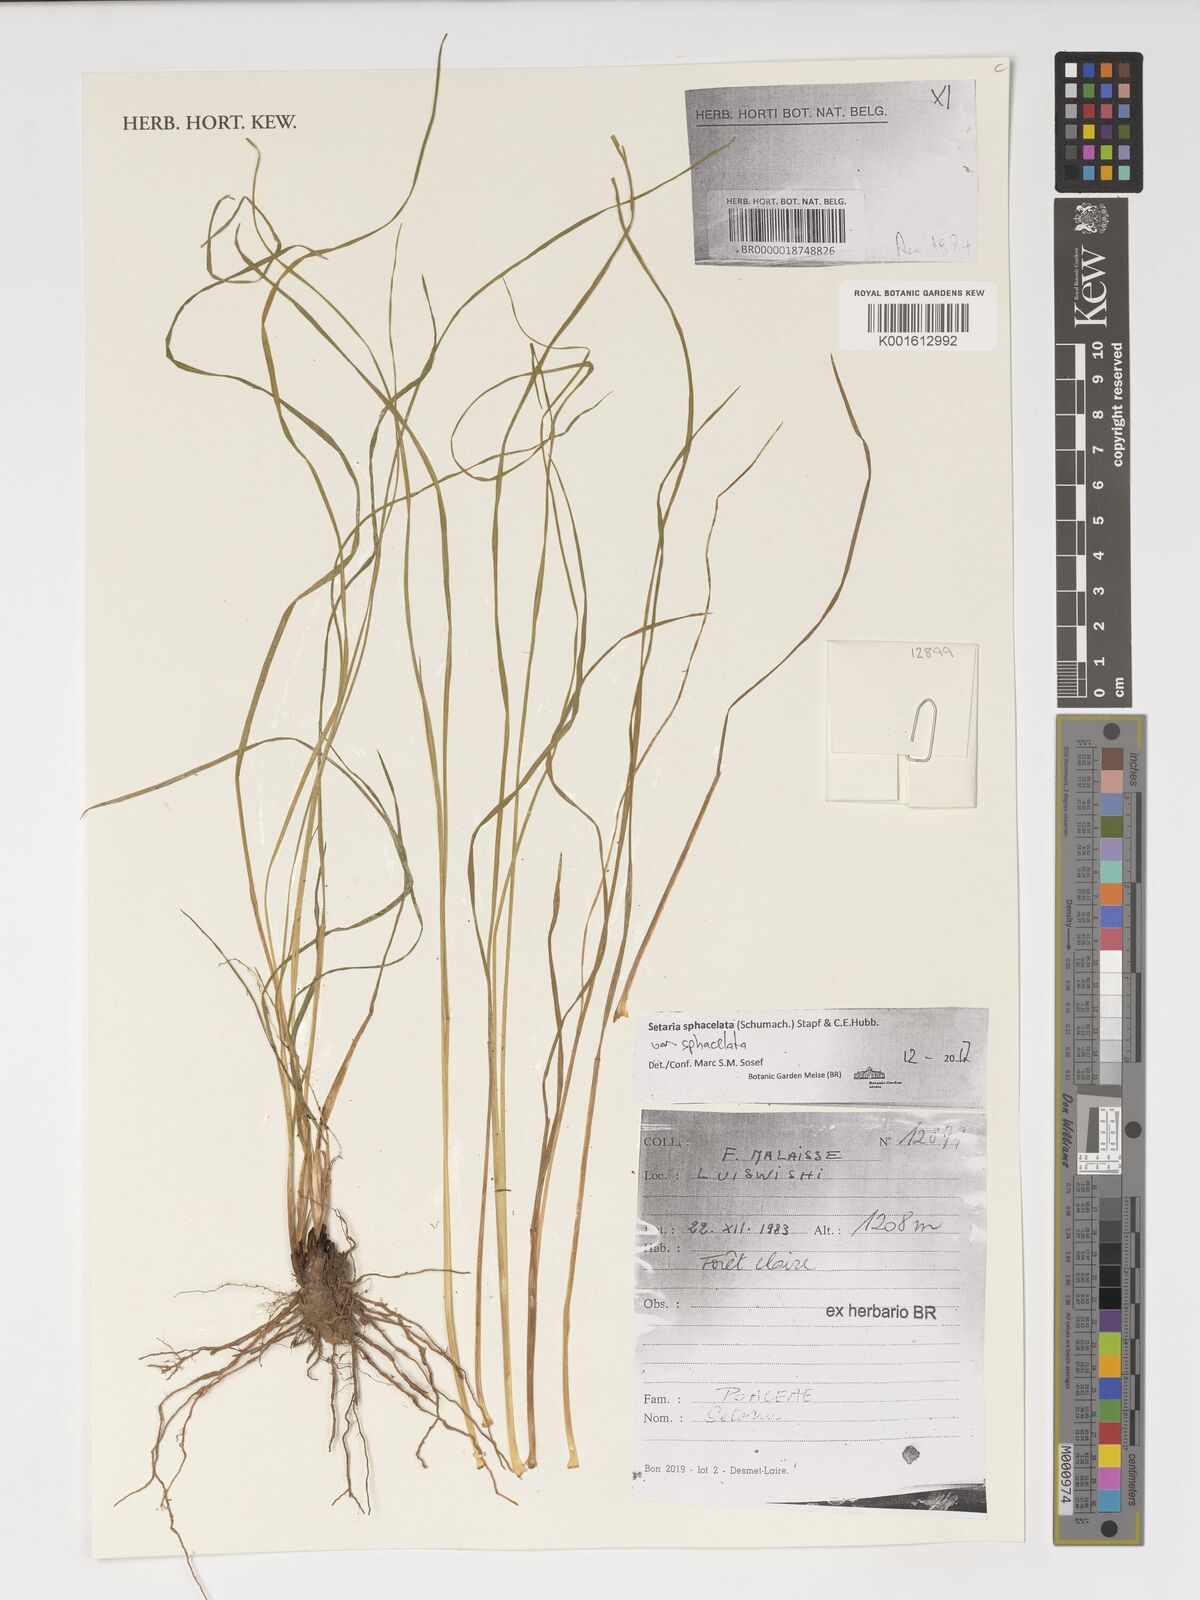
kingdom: Plantae
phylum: Tracheophyta
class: Liliopsida
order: Poales
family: Poaceae
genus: Setaria
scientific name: Setaria sphacelata
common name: African bristlegrass
